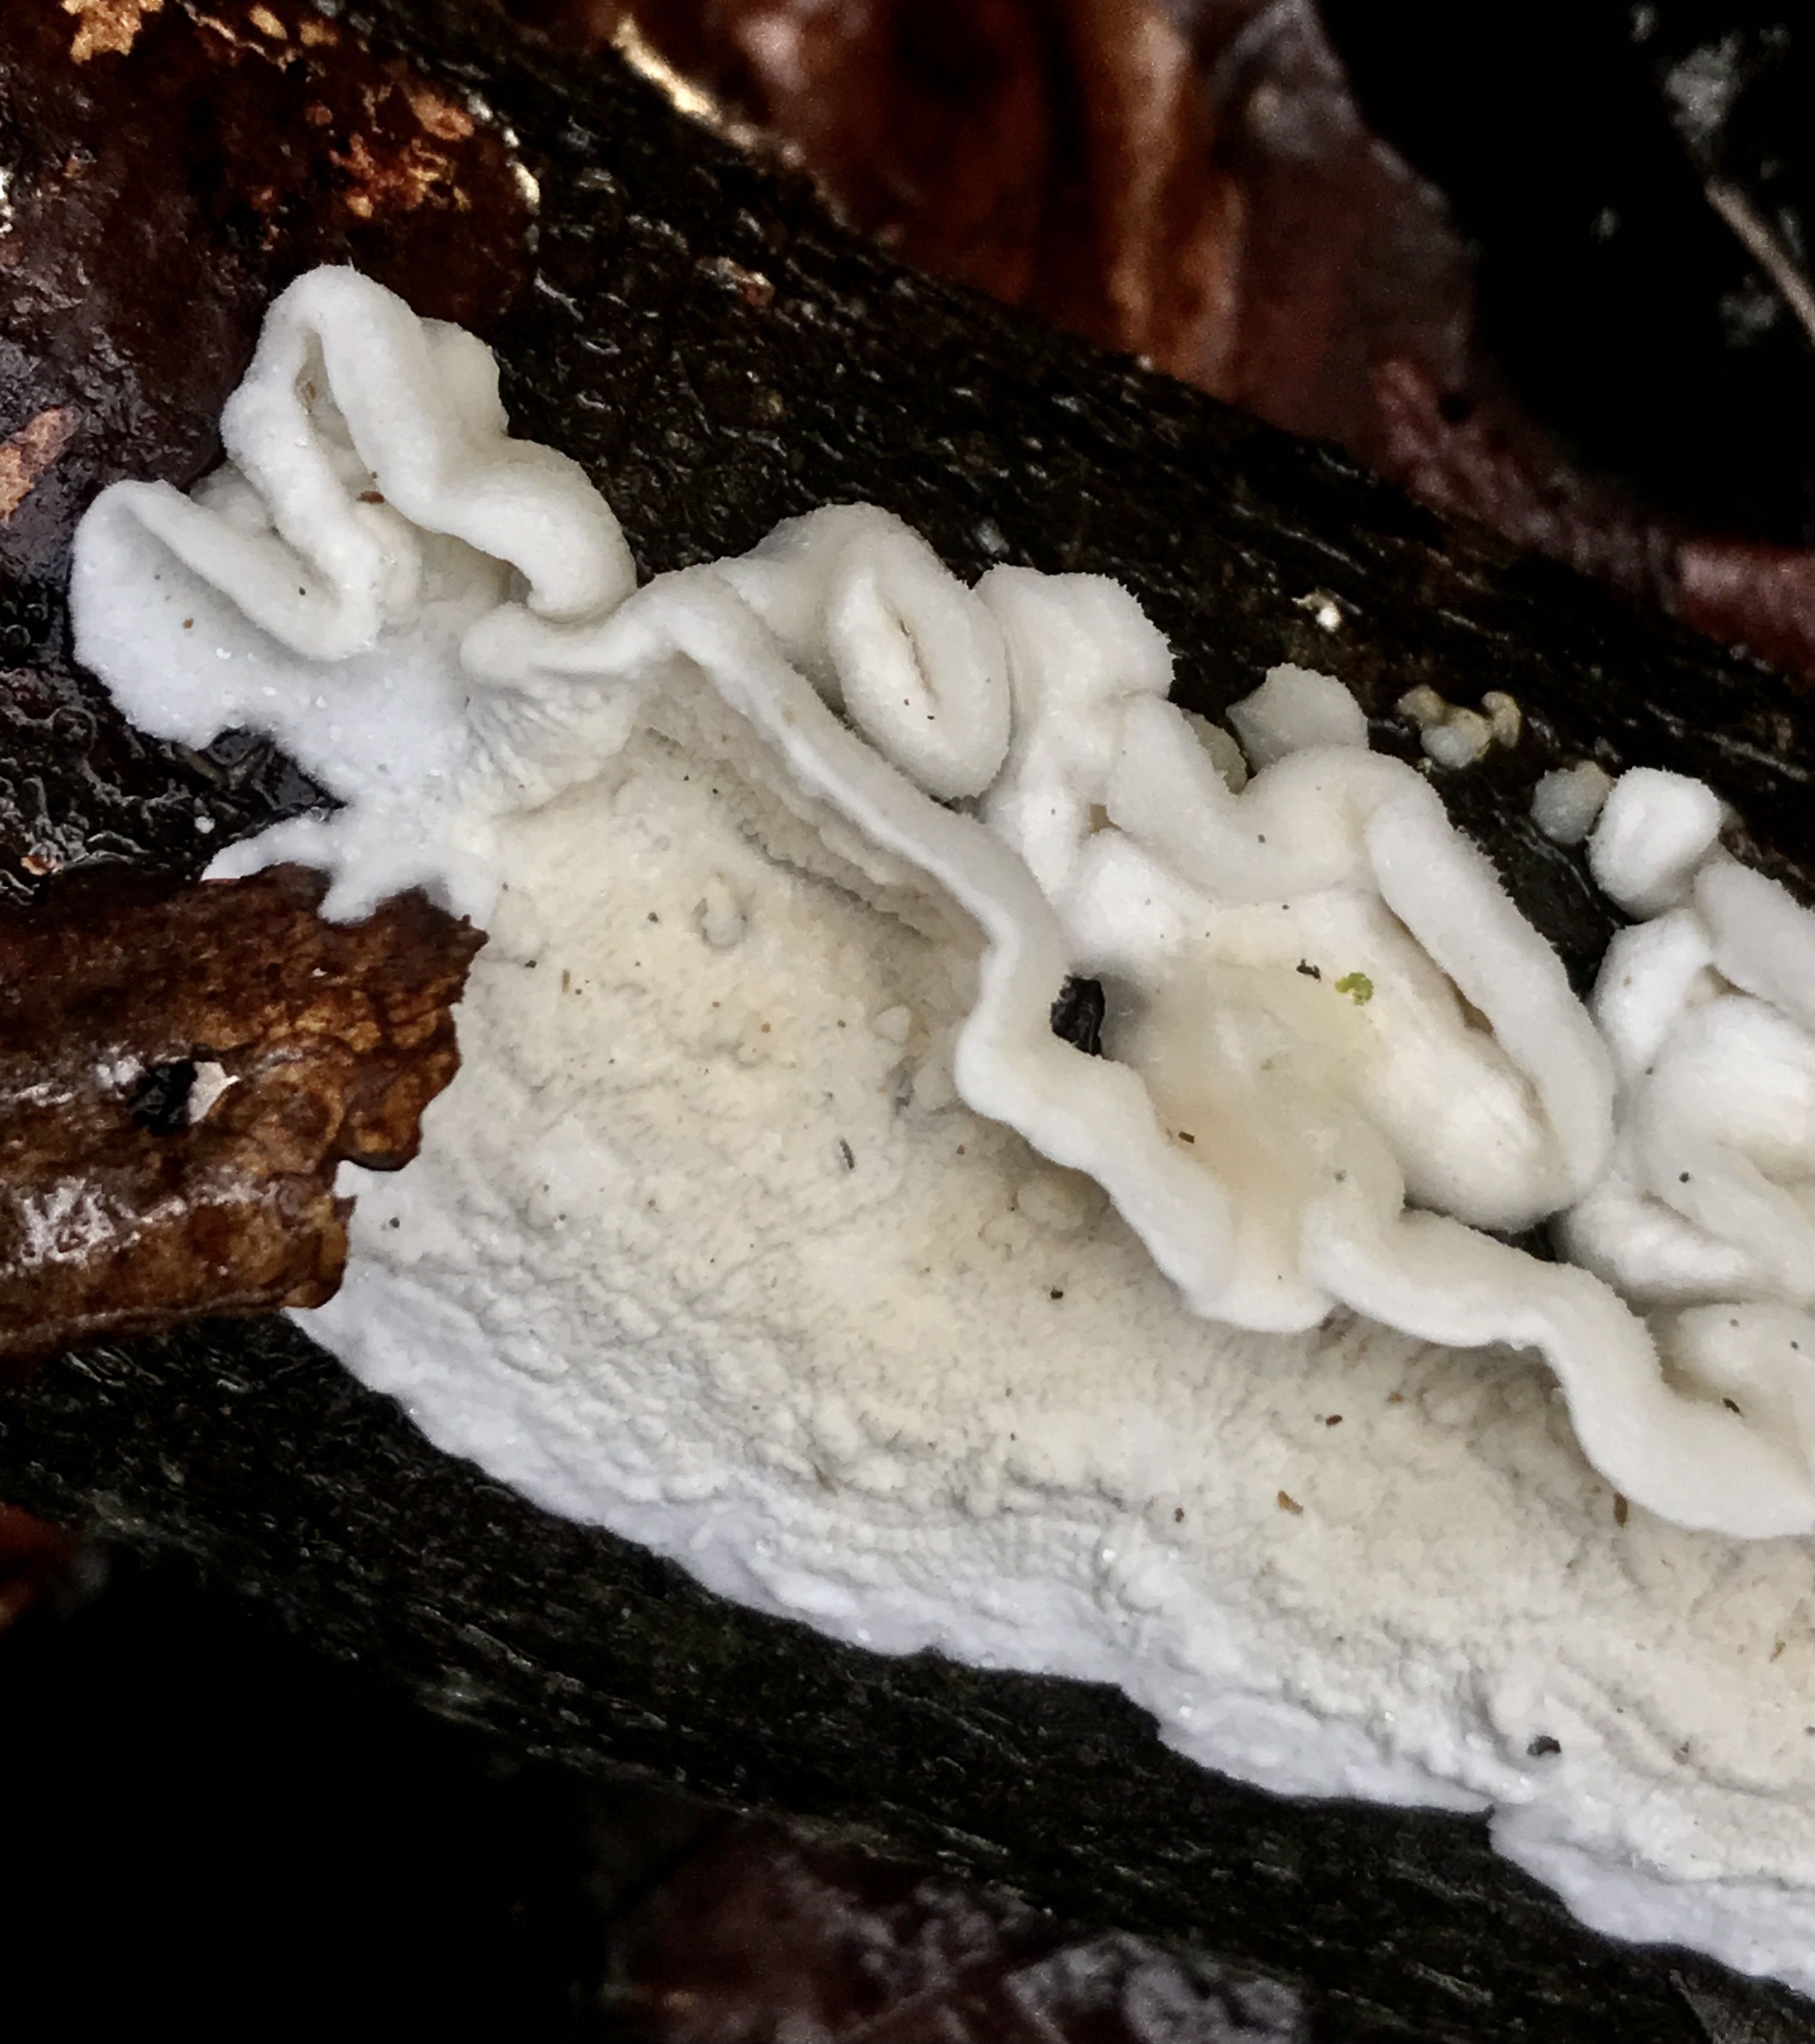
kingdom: Fungi
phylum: Basidiomycota
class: Agaricomycetes
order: Polyporales
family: Irpicaceae
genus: Byssomerulius
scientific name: Byssomerulius corium
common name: læder-åresvamp
